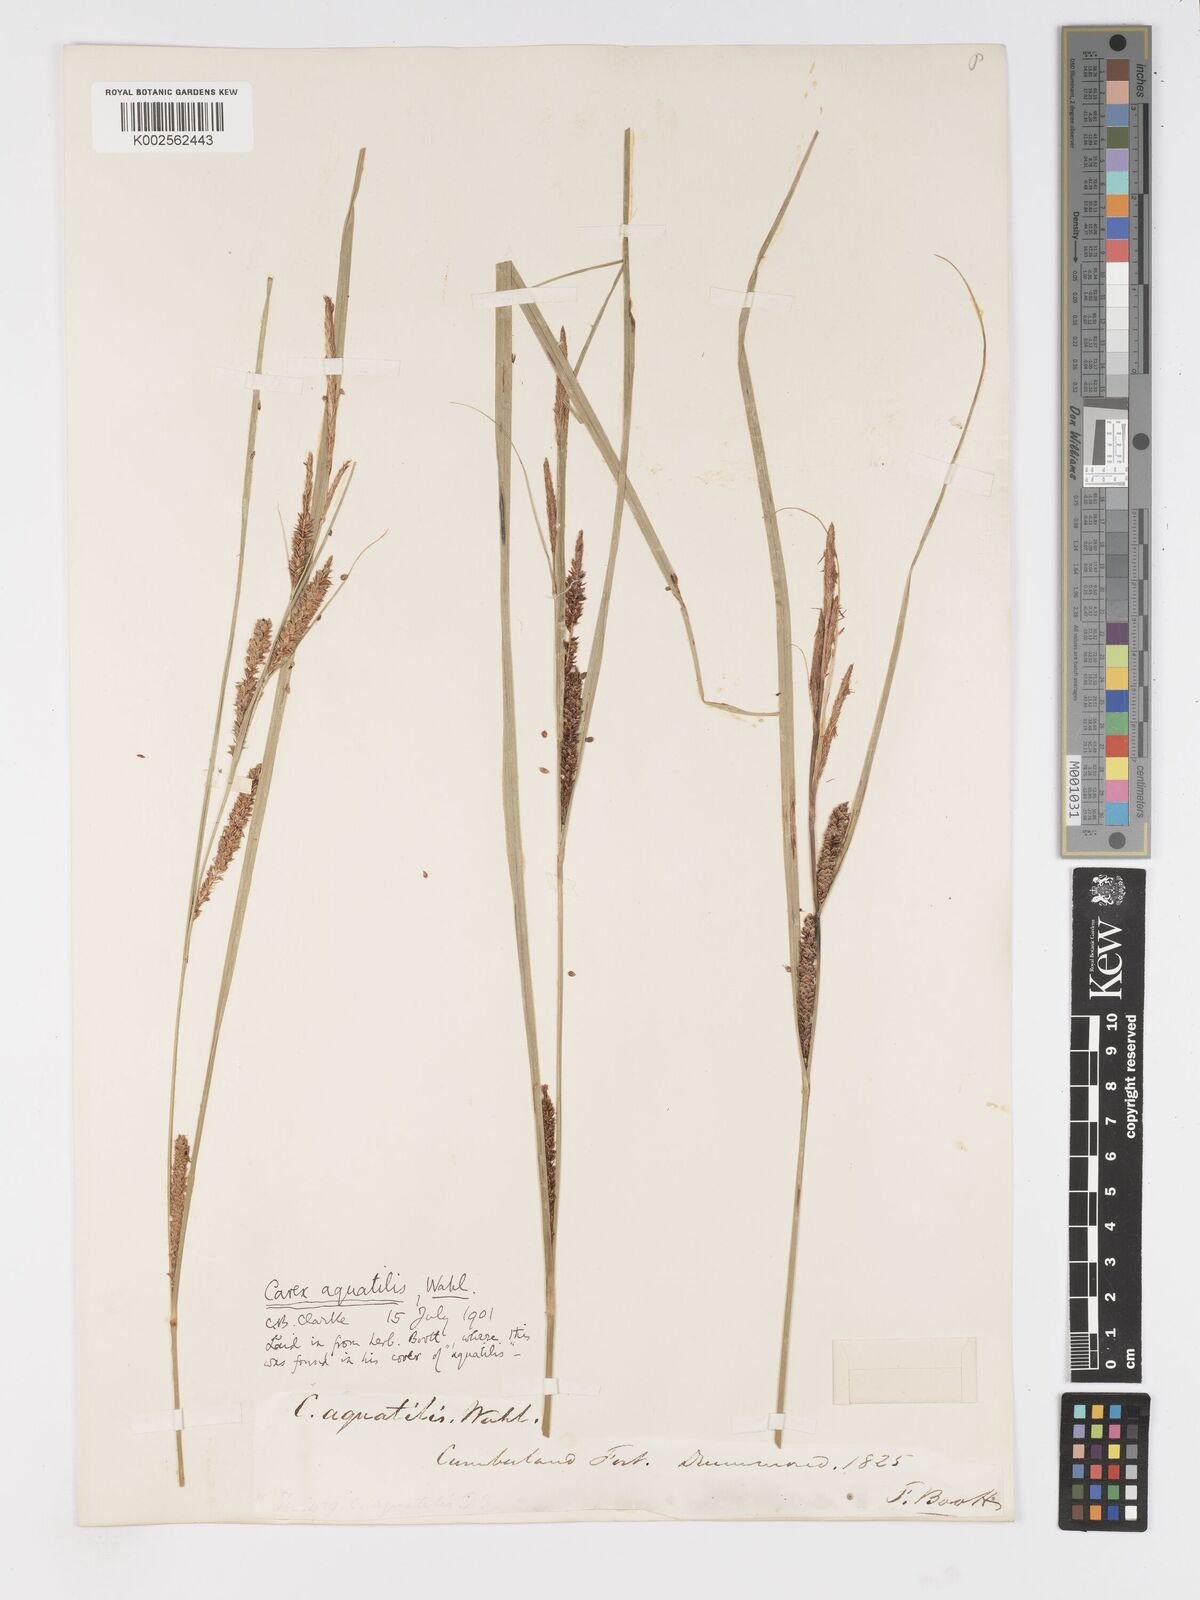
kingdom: Plantae
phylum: Tracheophyta
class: Liliopsida
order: Poales
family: Cyperaceae
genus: Carex
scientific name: Carex
